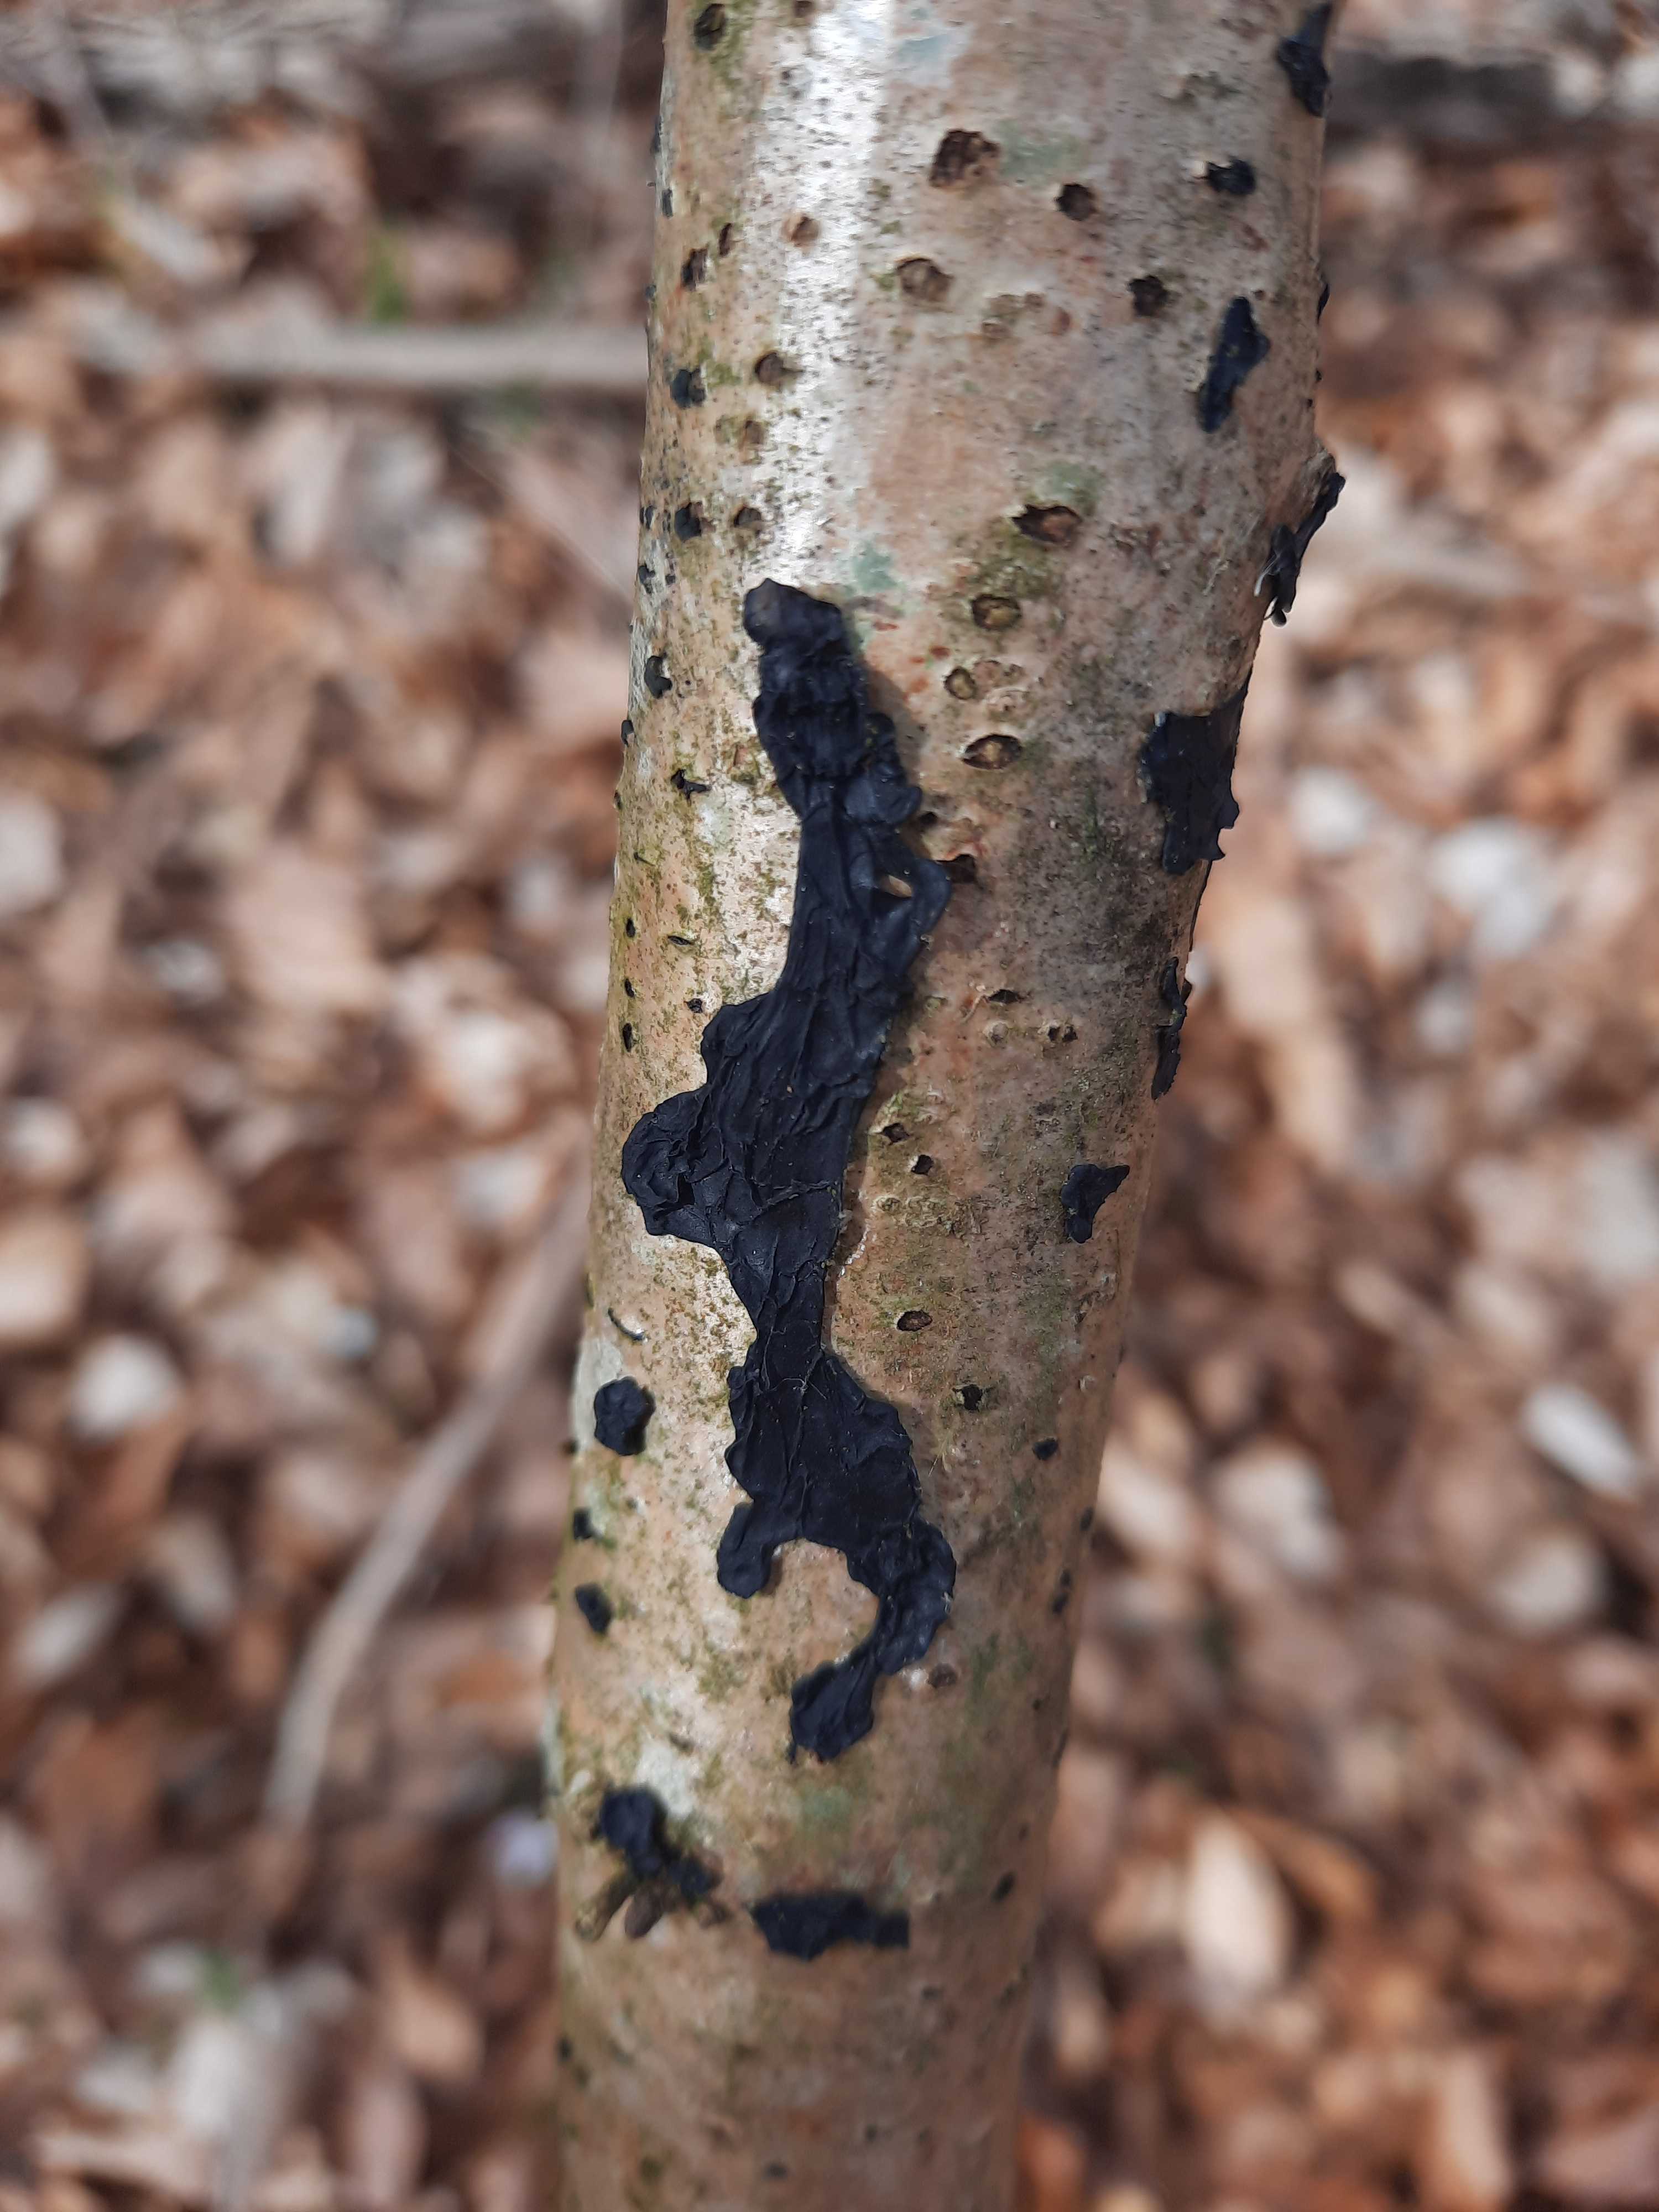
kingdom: Fungi
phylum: Basidiomycota
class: Agaricomycetes
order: Auriculariales
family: Auriculariaceae
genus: Exidia
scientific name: Exidia nigricans
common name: almindelig bævretop
